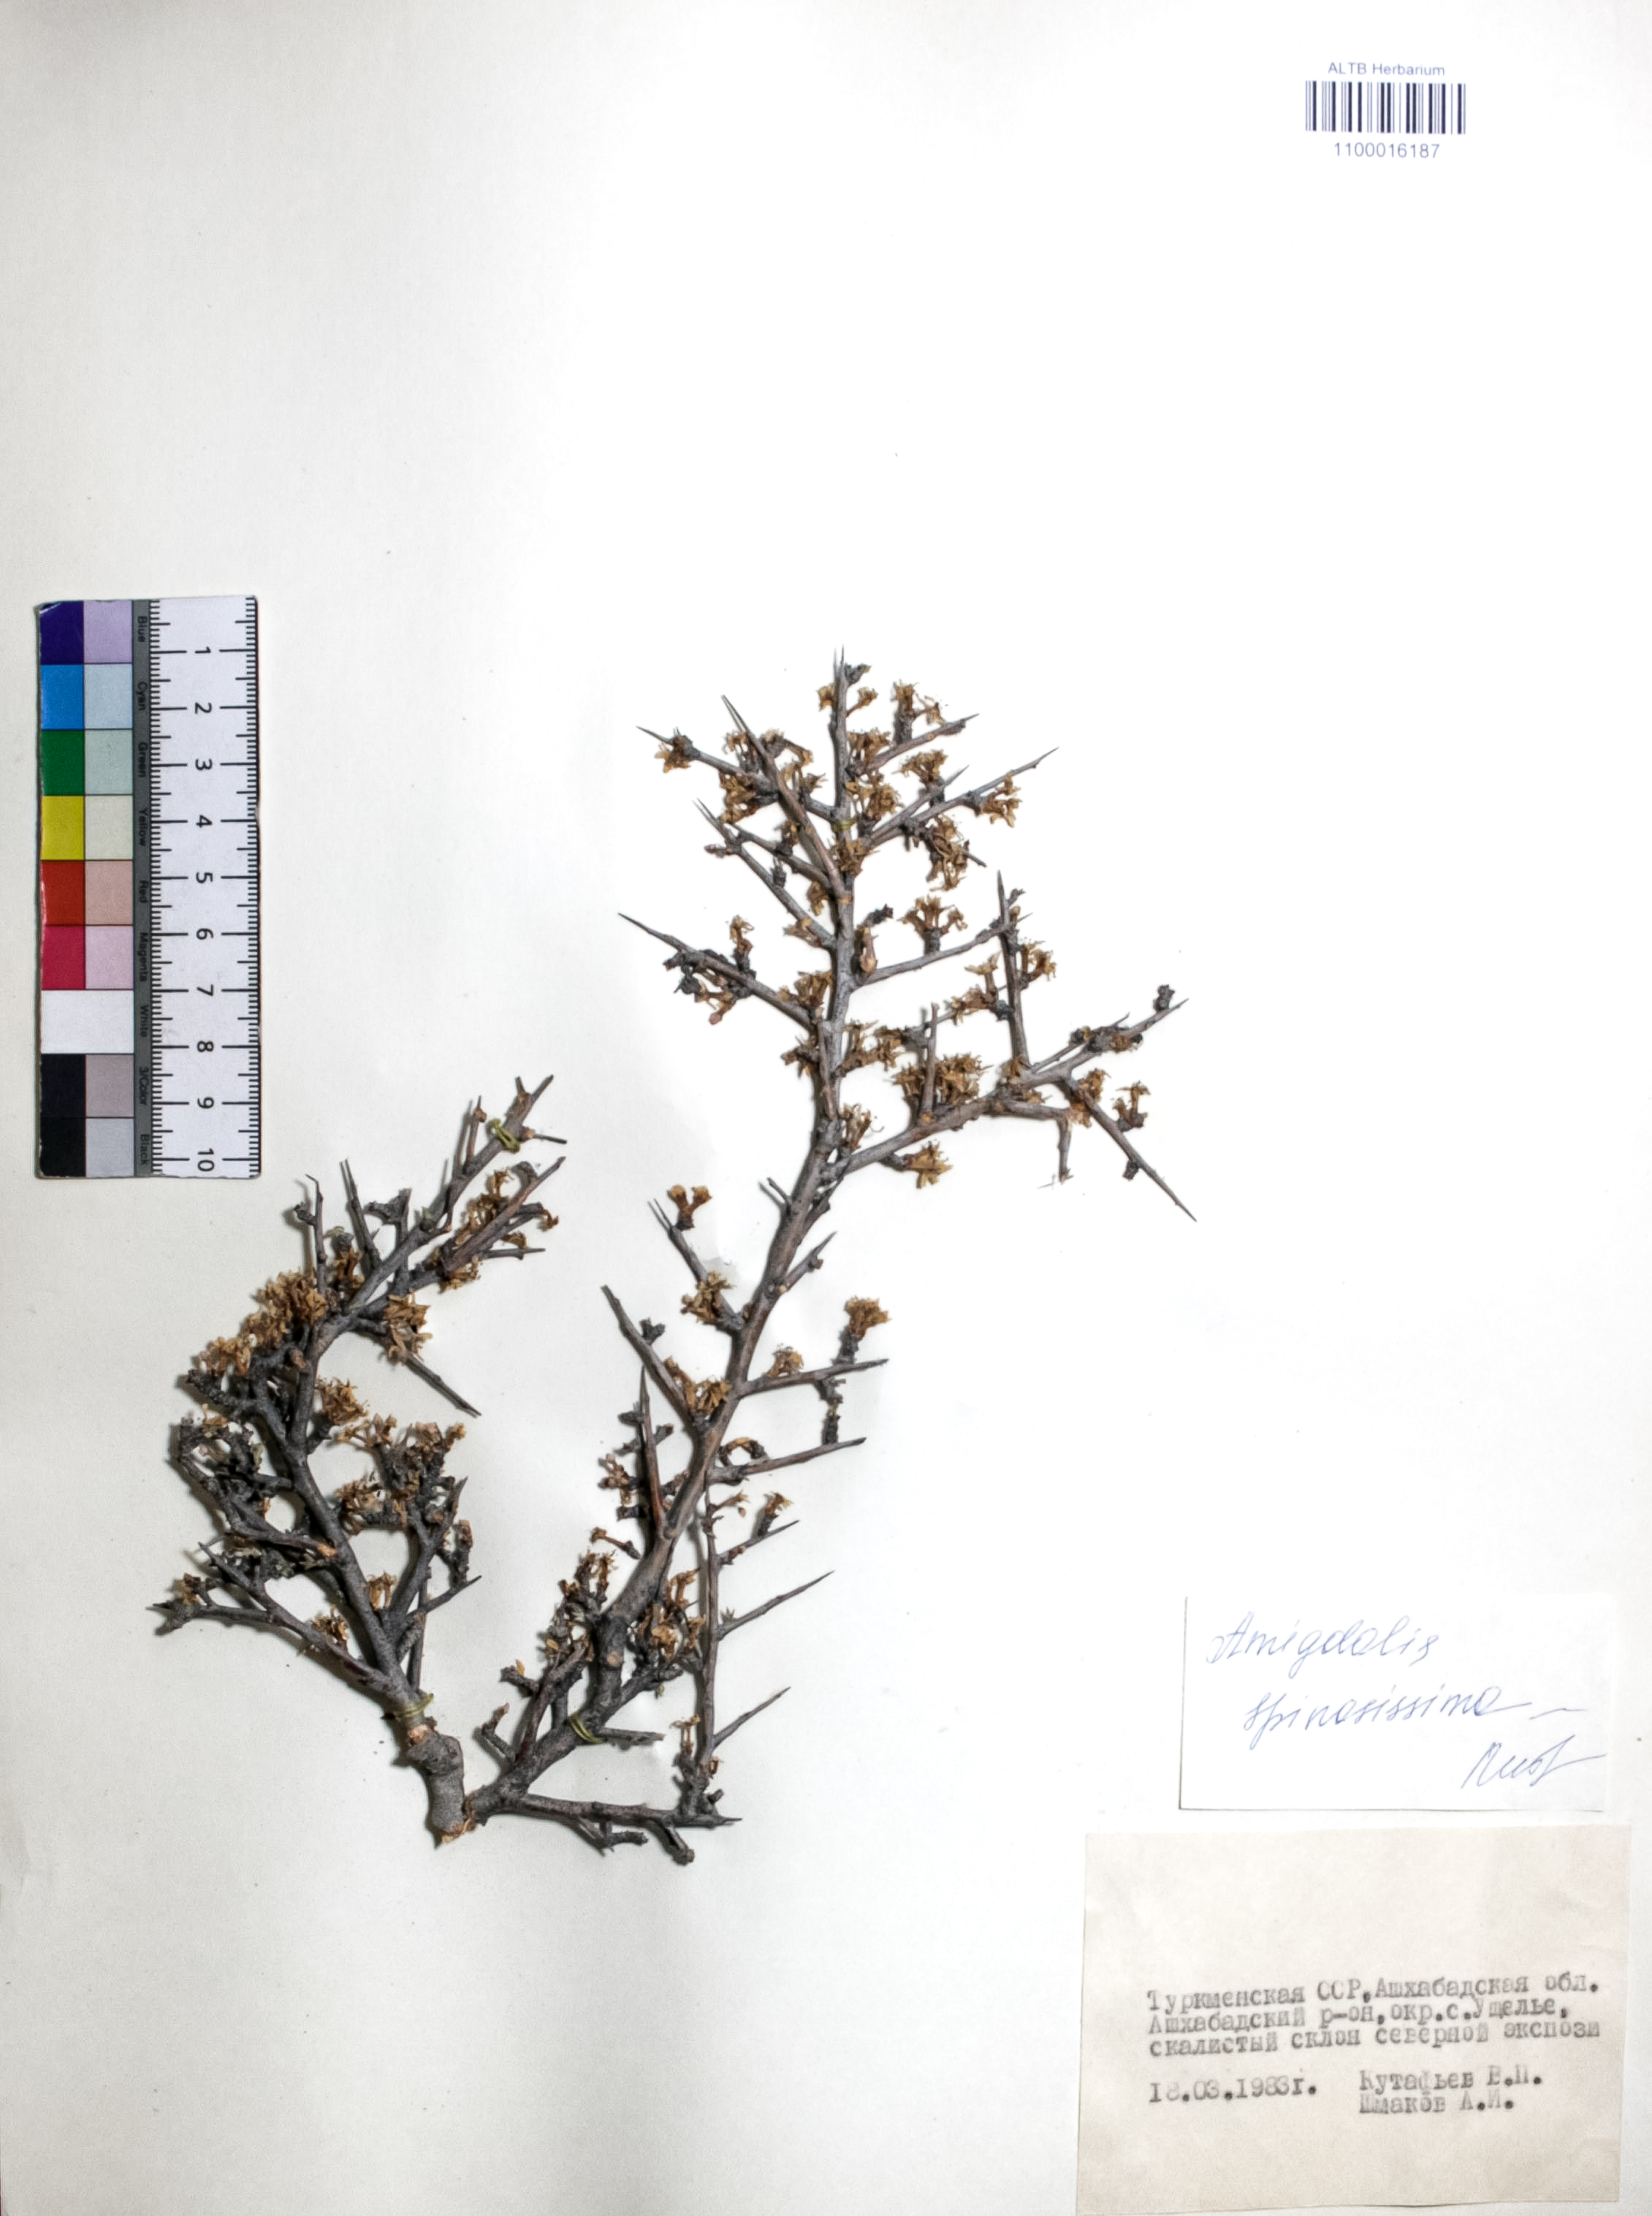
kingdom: Plantae
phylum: Tracheophyta
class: Magnoliopsida
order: Rosales
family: Rosaceae
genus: Prunus
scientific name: Prunus spinosissima
